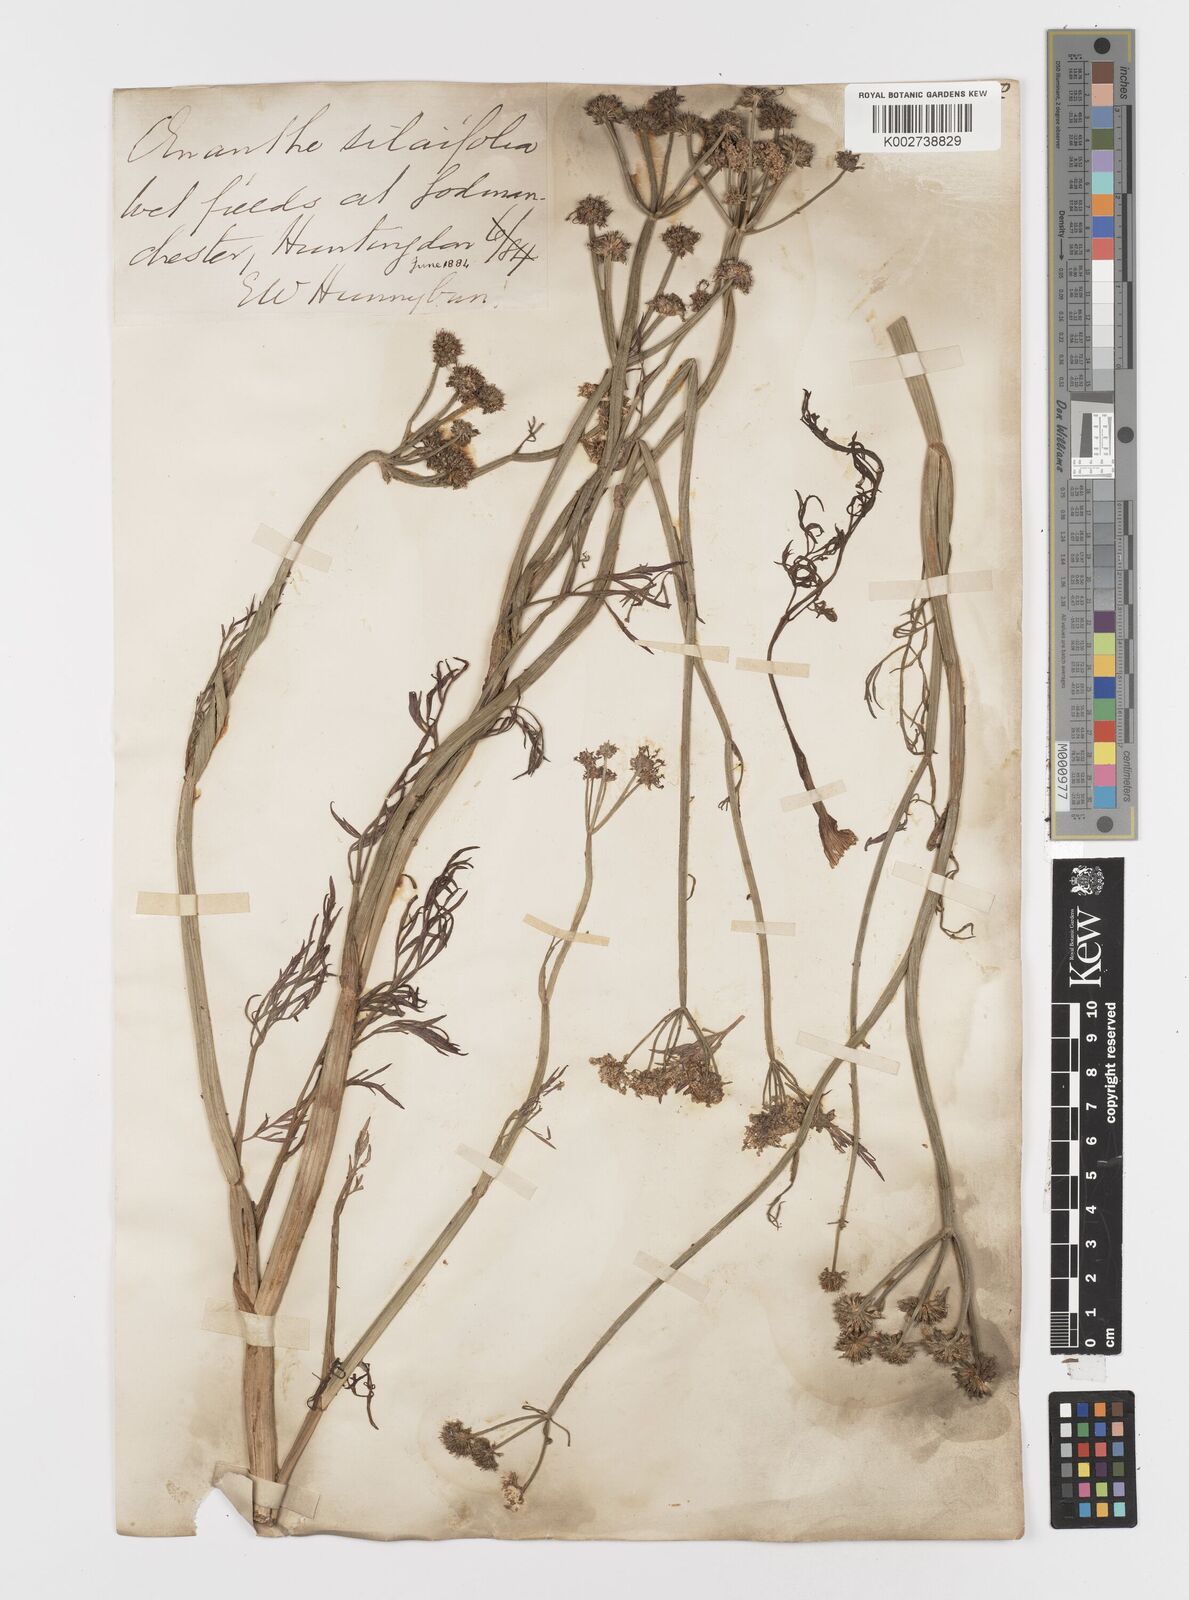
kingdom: Plantae
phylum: Tracheophyta
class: Magnoliopsida
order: Apiales
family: Apiaceae
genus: Oenanthe
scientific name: Oenanthe silaifolia
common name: Narrow-leaved water-dropwort
